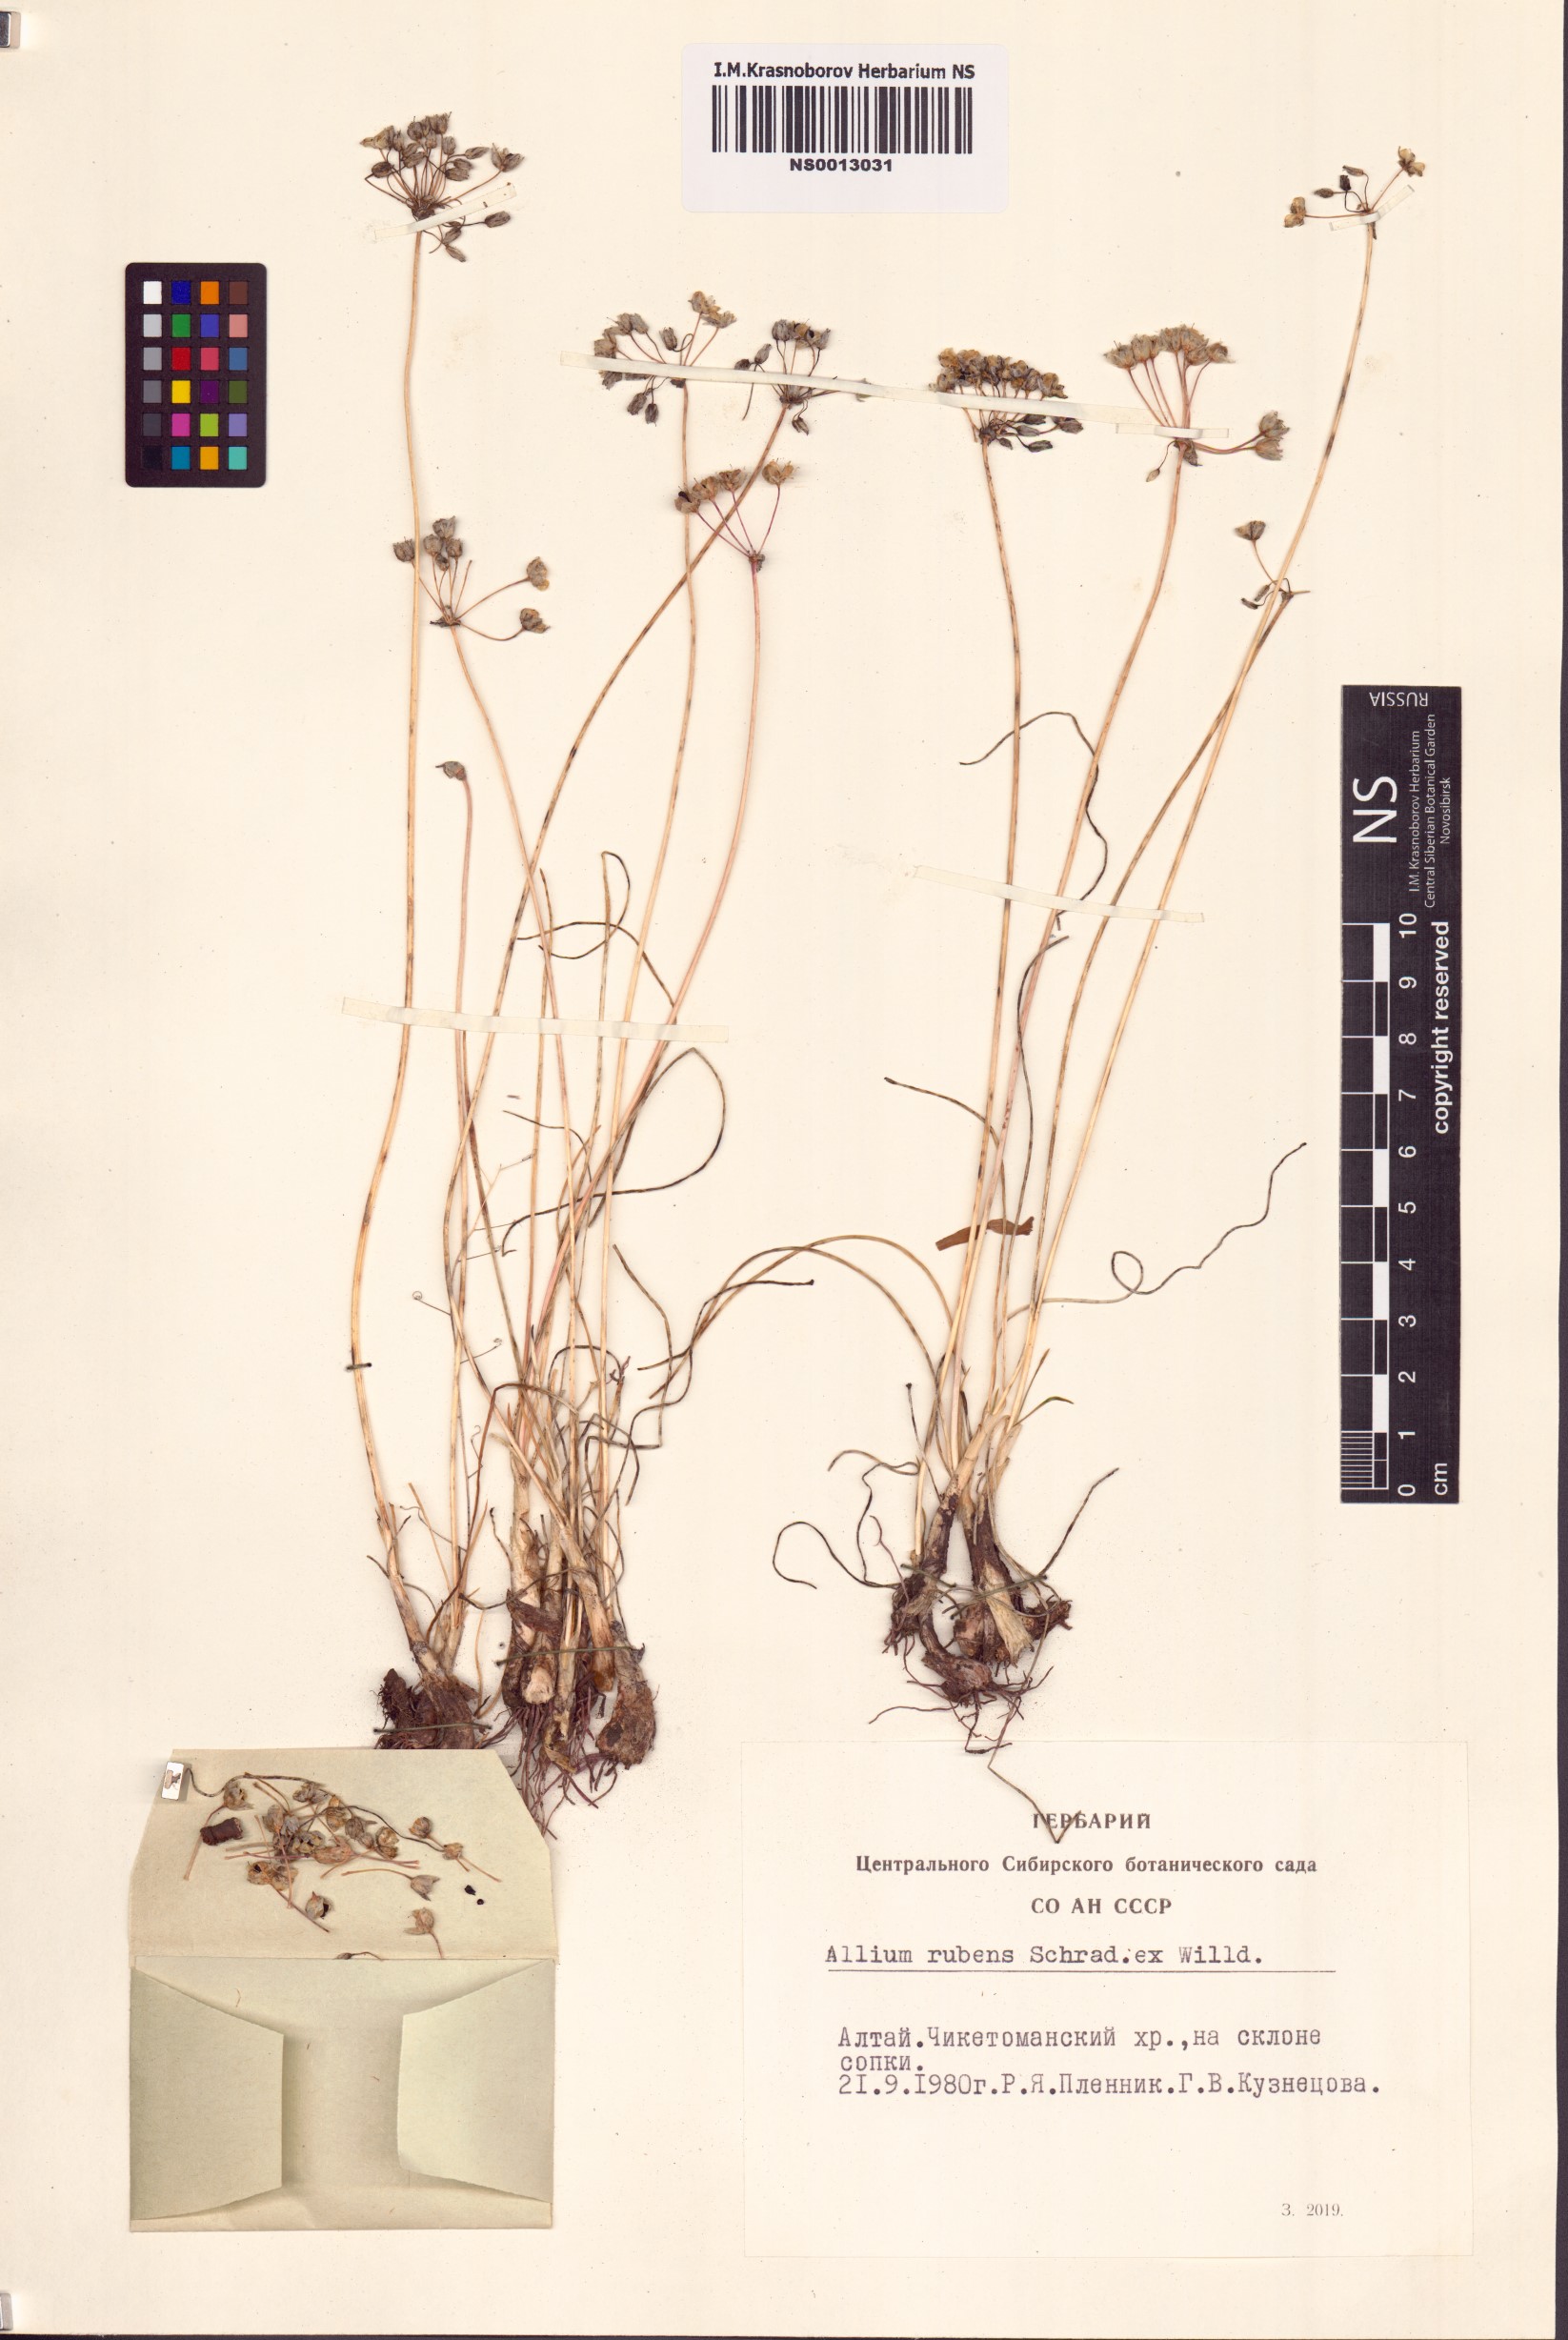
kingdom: Plantae
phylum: Tracheophyta
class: Liliopsida
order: Asparagales
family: Amaryllidaceae
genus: Allium
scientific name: Allium rubens
